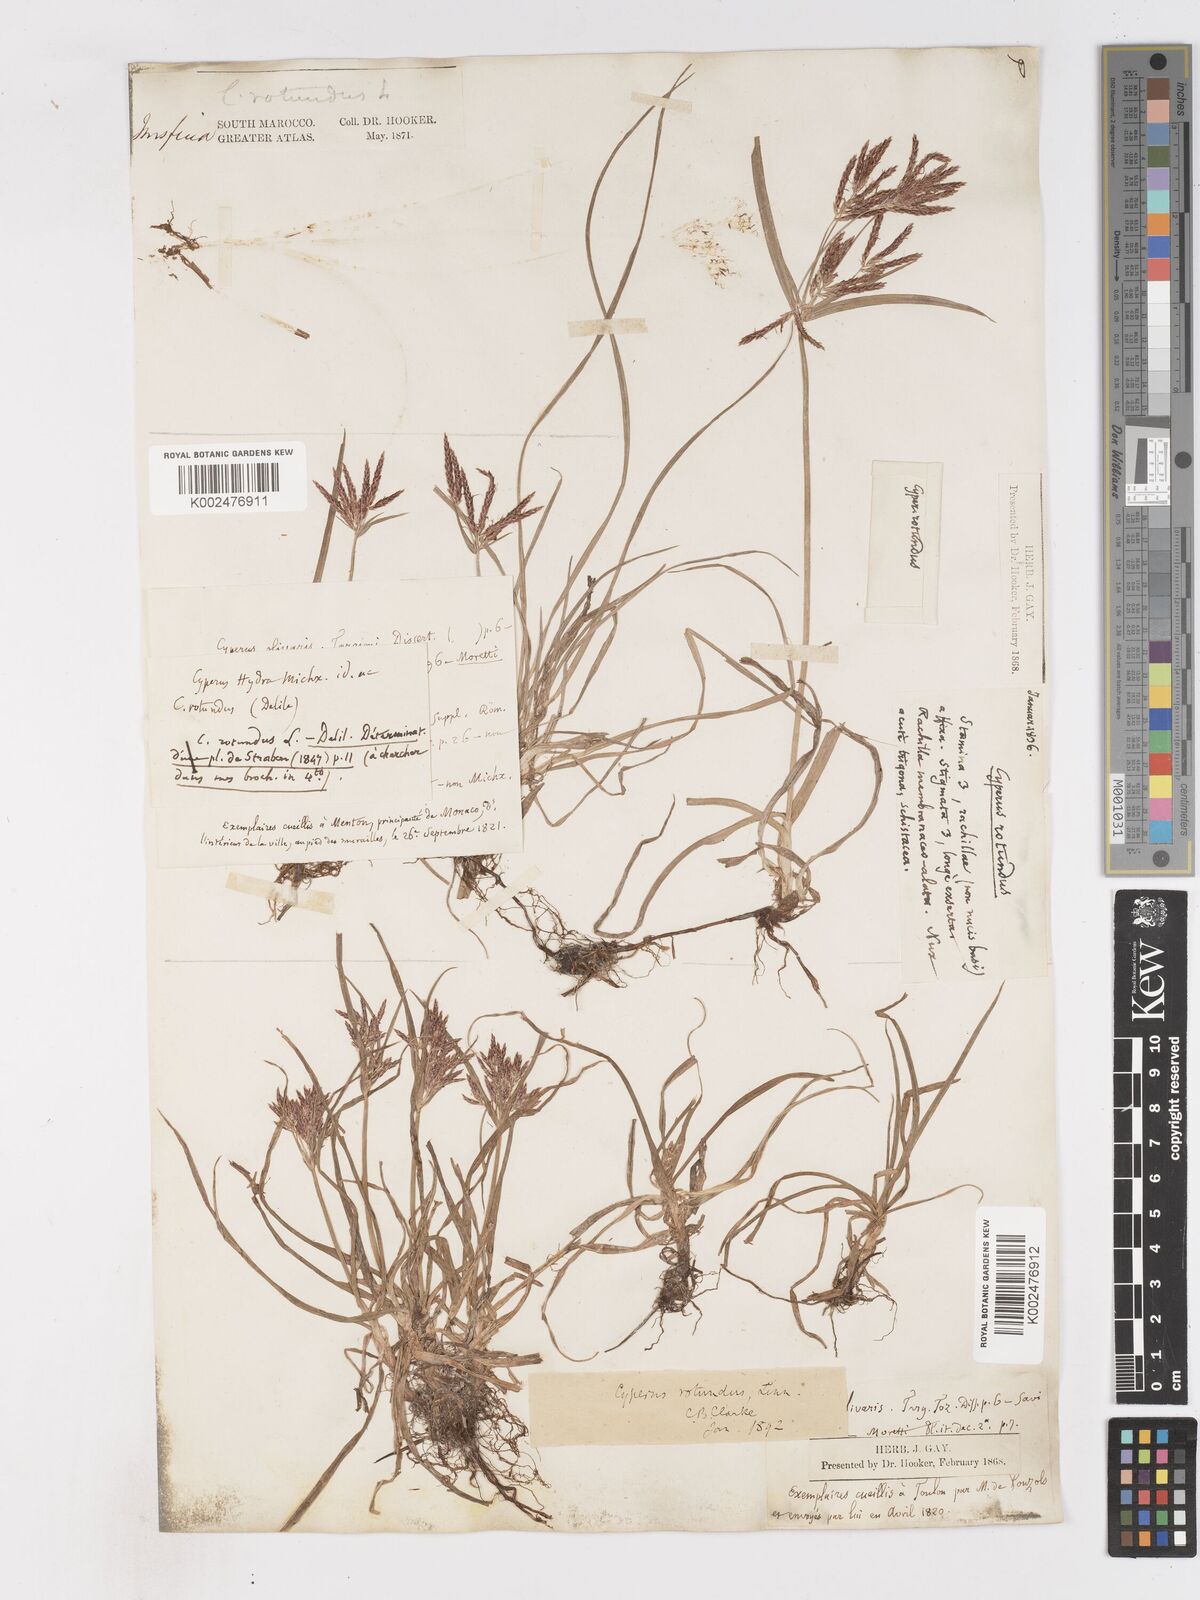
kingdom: Plantae
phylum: Tracheophyta
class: Liliopsida
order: Poales
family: Cyperaceae
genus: Cyperus
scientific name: Cyperus rotundus
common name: Nutgrass
